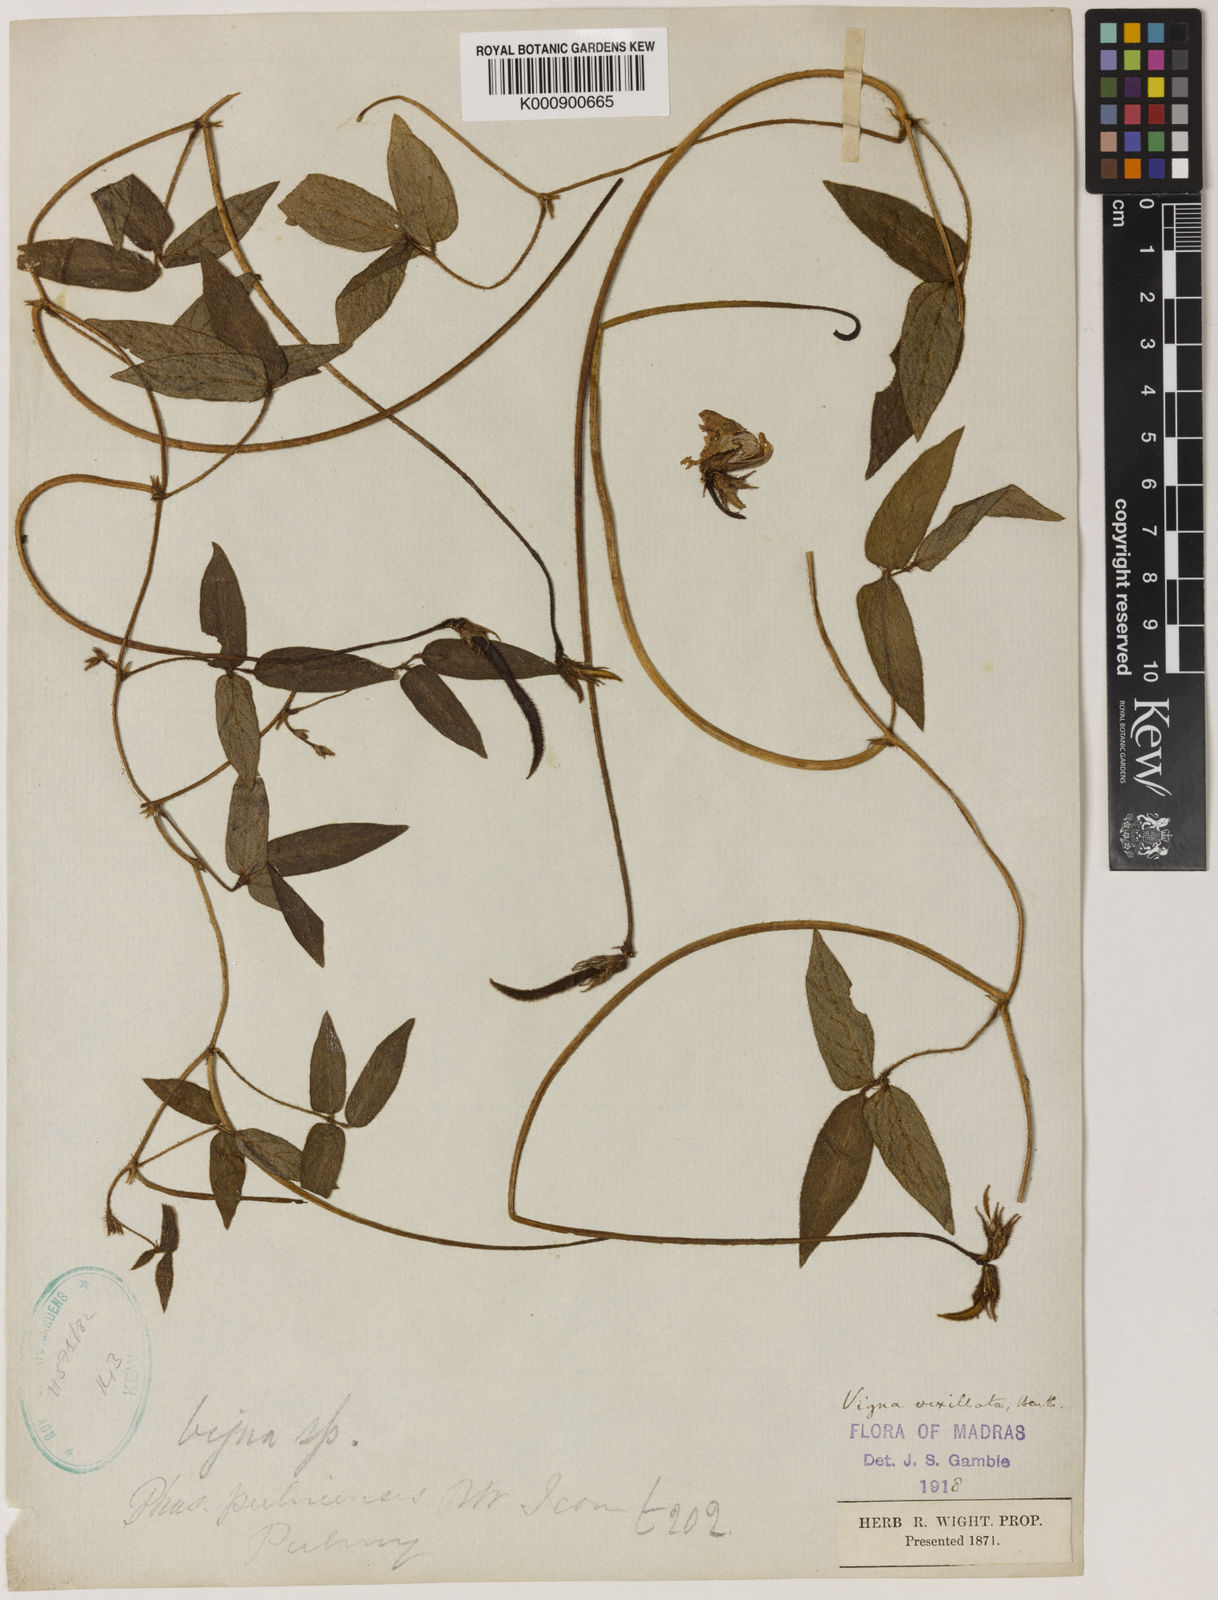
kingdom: Plantae
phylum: Tracheophyta
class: Magnoliopsida
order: Fabales
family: Fabaceae
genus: Vigna
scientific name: Vigna vexillata
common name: Zombi pea
